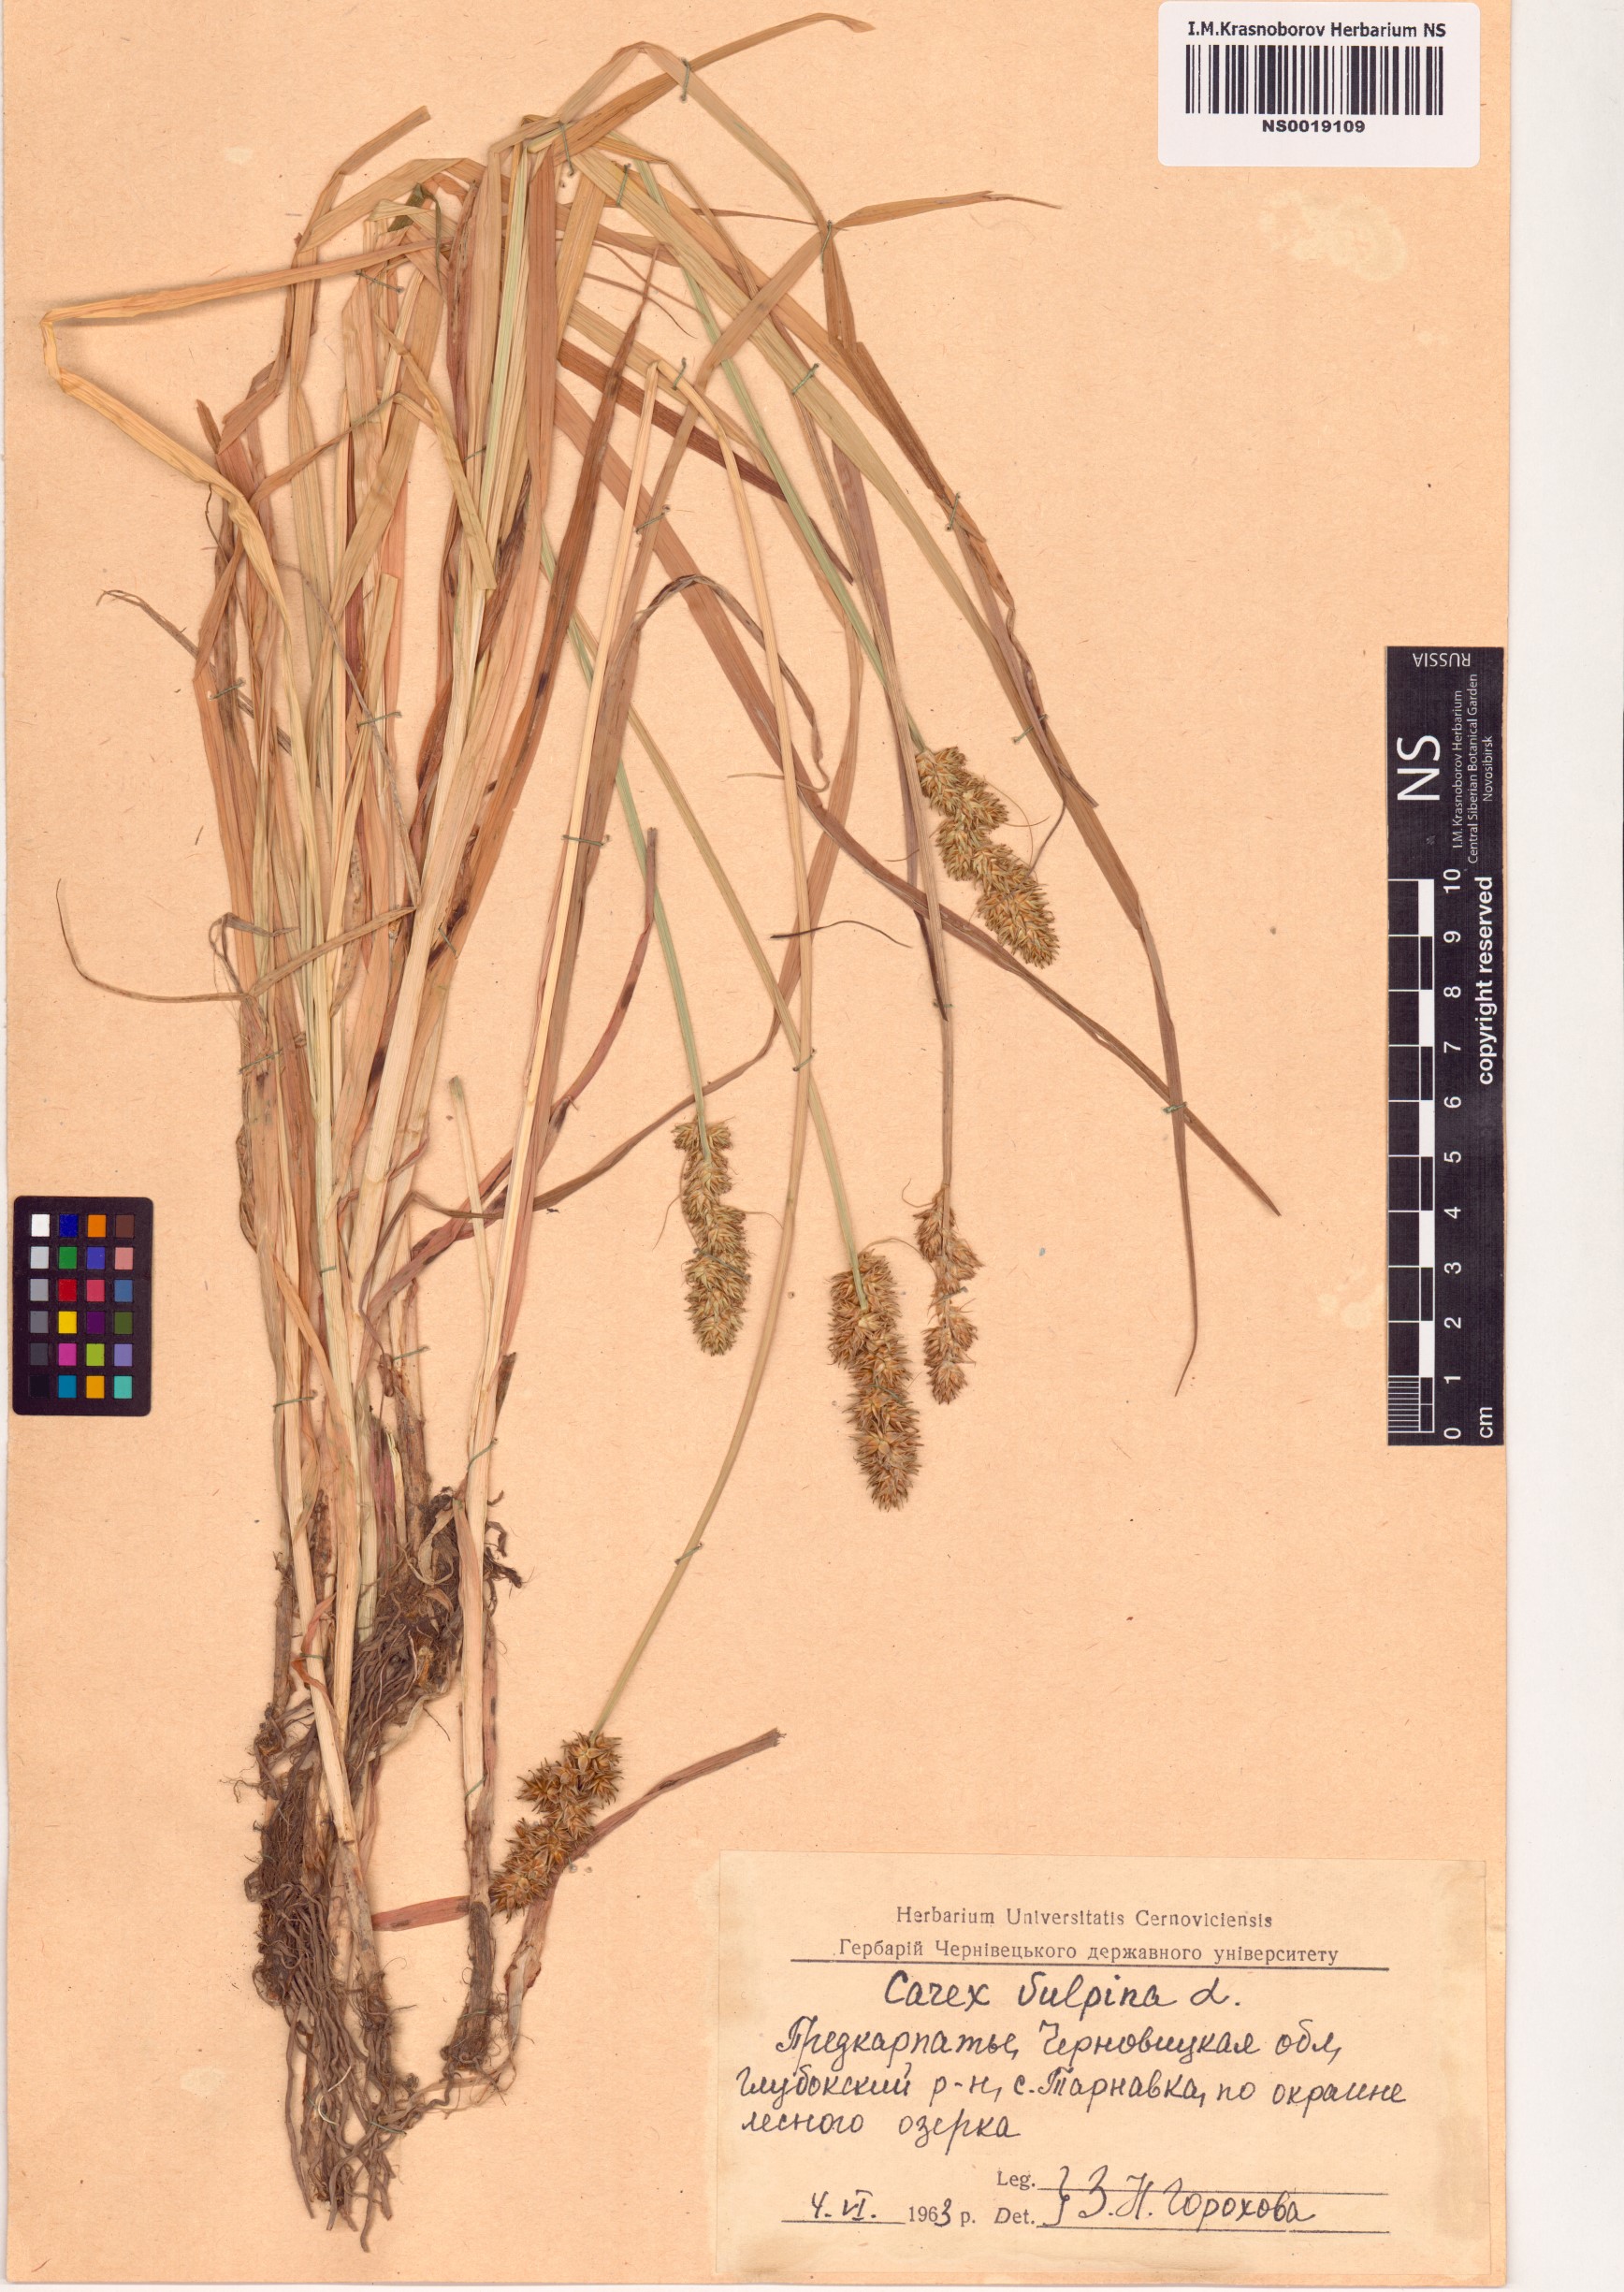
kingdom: Plantae
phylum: Tracheophyta
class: Liliopsida
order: Poales
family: Cyperaceae
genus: Carex
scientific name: Carex vulpina
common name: True fox-sedge
